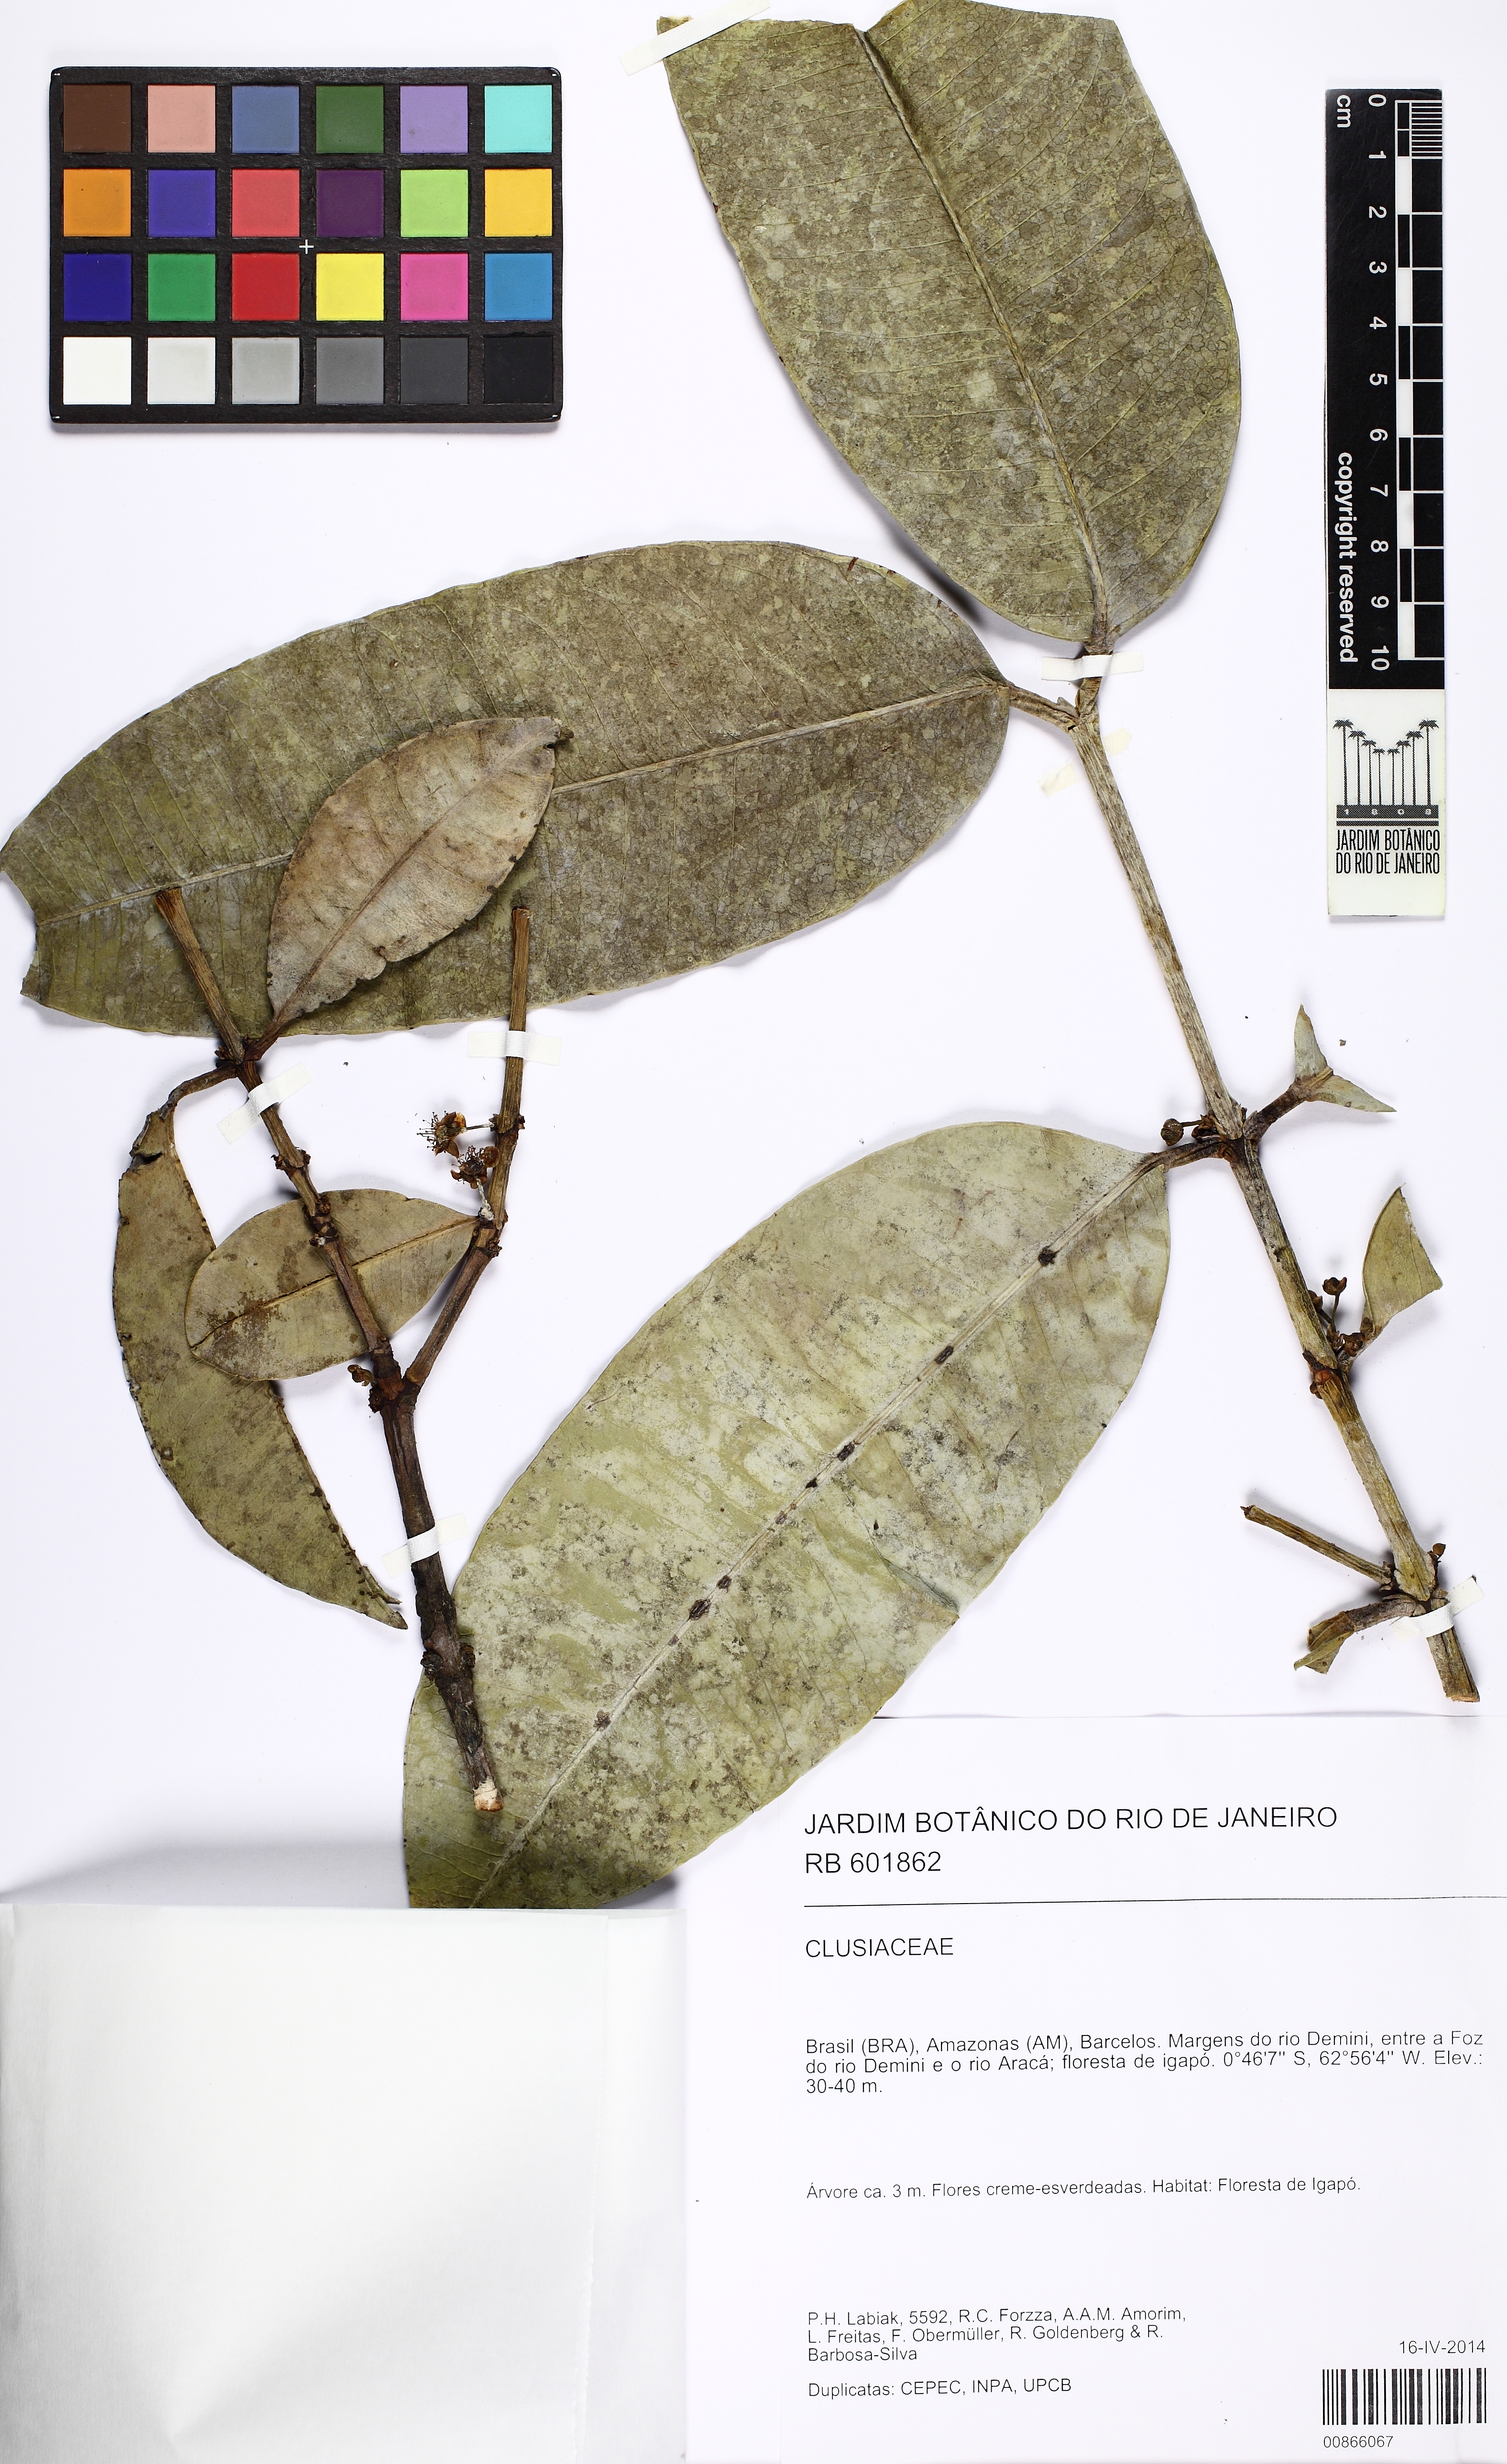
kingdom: Plantae
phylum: Tracheophyta
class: Magnoliopsida
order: Malpighiales
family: Clusiaceae
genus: Garcinia
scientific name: Garcinia madruno
